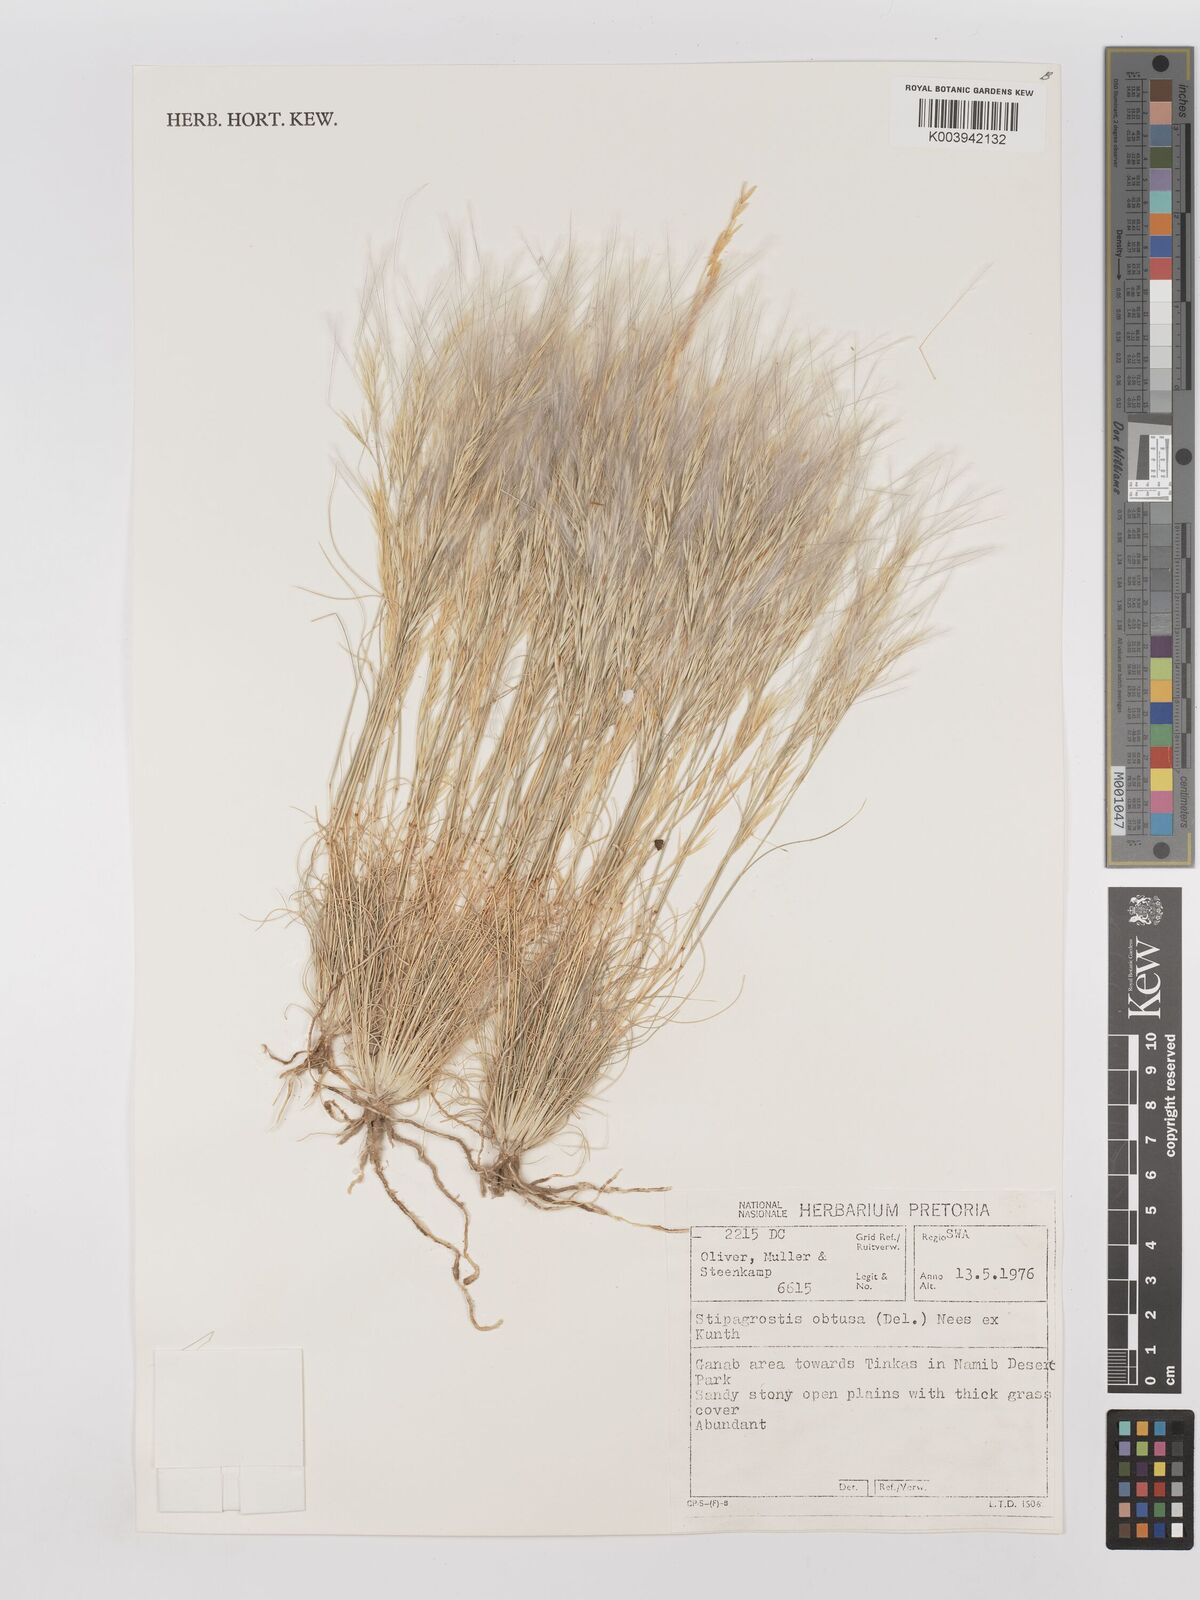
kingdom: Plantae
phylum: Tracheophyta
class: Liliopsida
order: Poales
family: Poaceae
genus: Stipagrostis
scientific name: Stipagrostis obtusa
